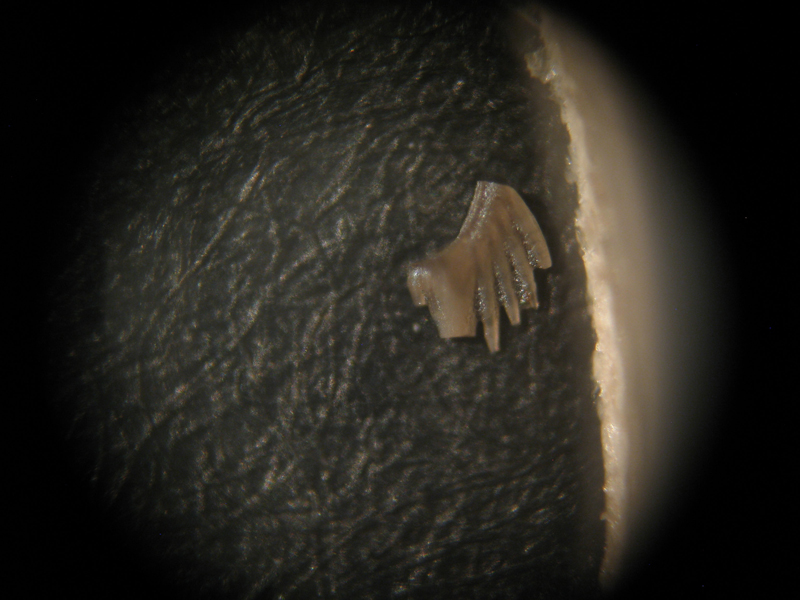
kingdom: Animalia
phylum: Chordata
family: Balognathidae
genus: Euprioniodina
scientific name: Euprioniodina
